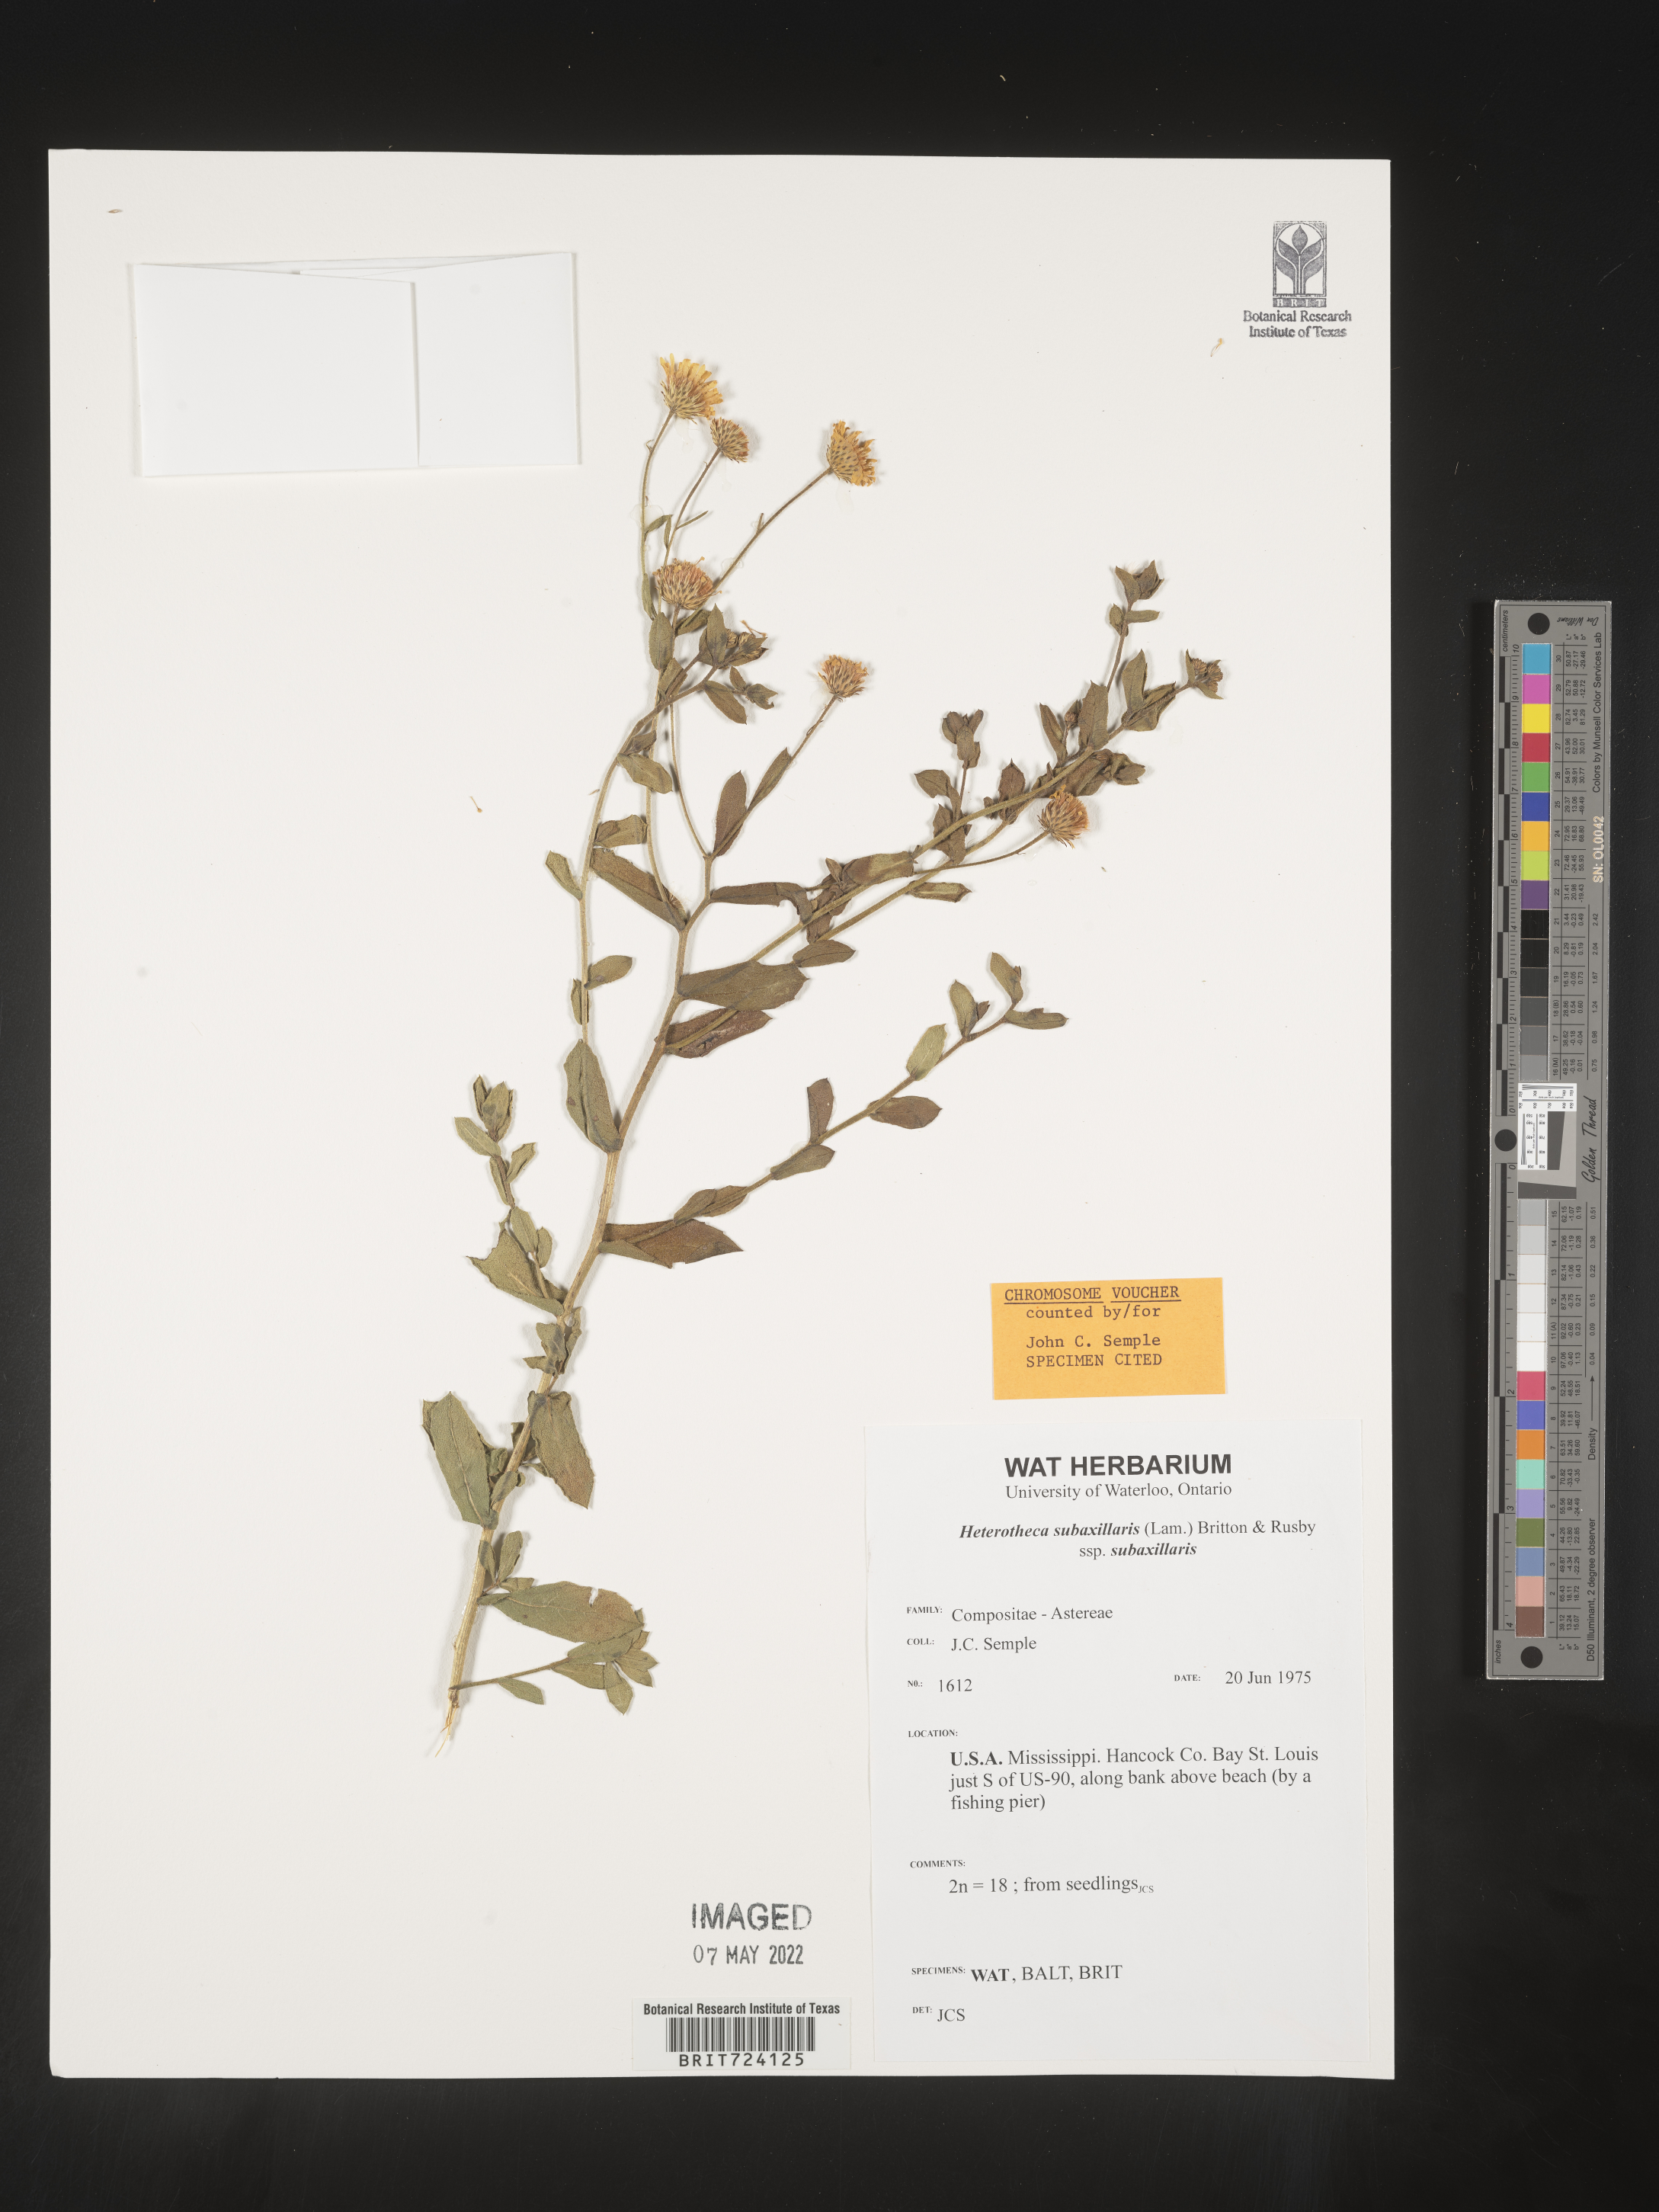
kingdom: Plantae
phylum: Tracheophyta
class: Magnoliopsida
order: Asterales
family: Asteraceae
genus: Heterotheca
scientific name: Heterotheca subaxillaris
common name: Camphorweed
